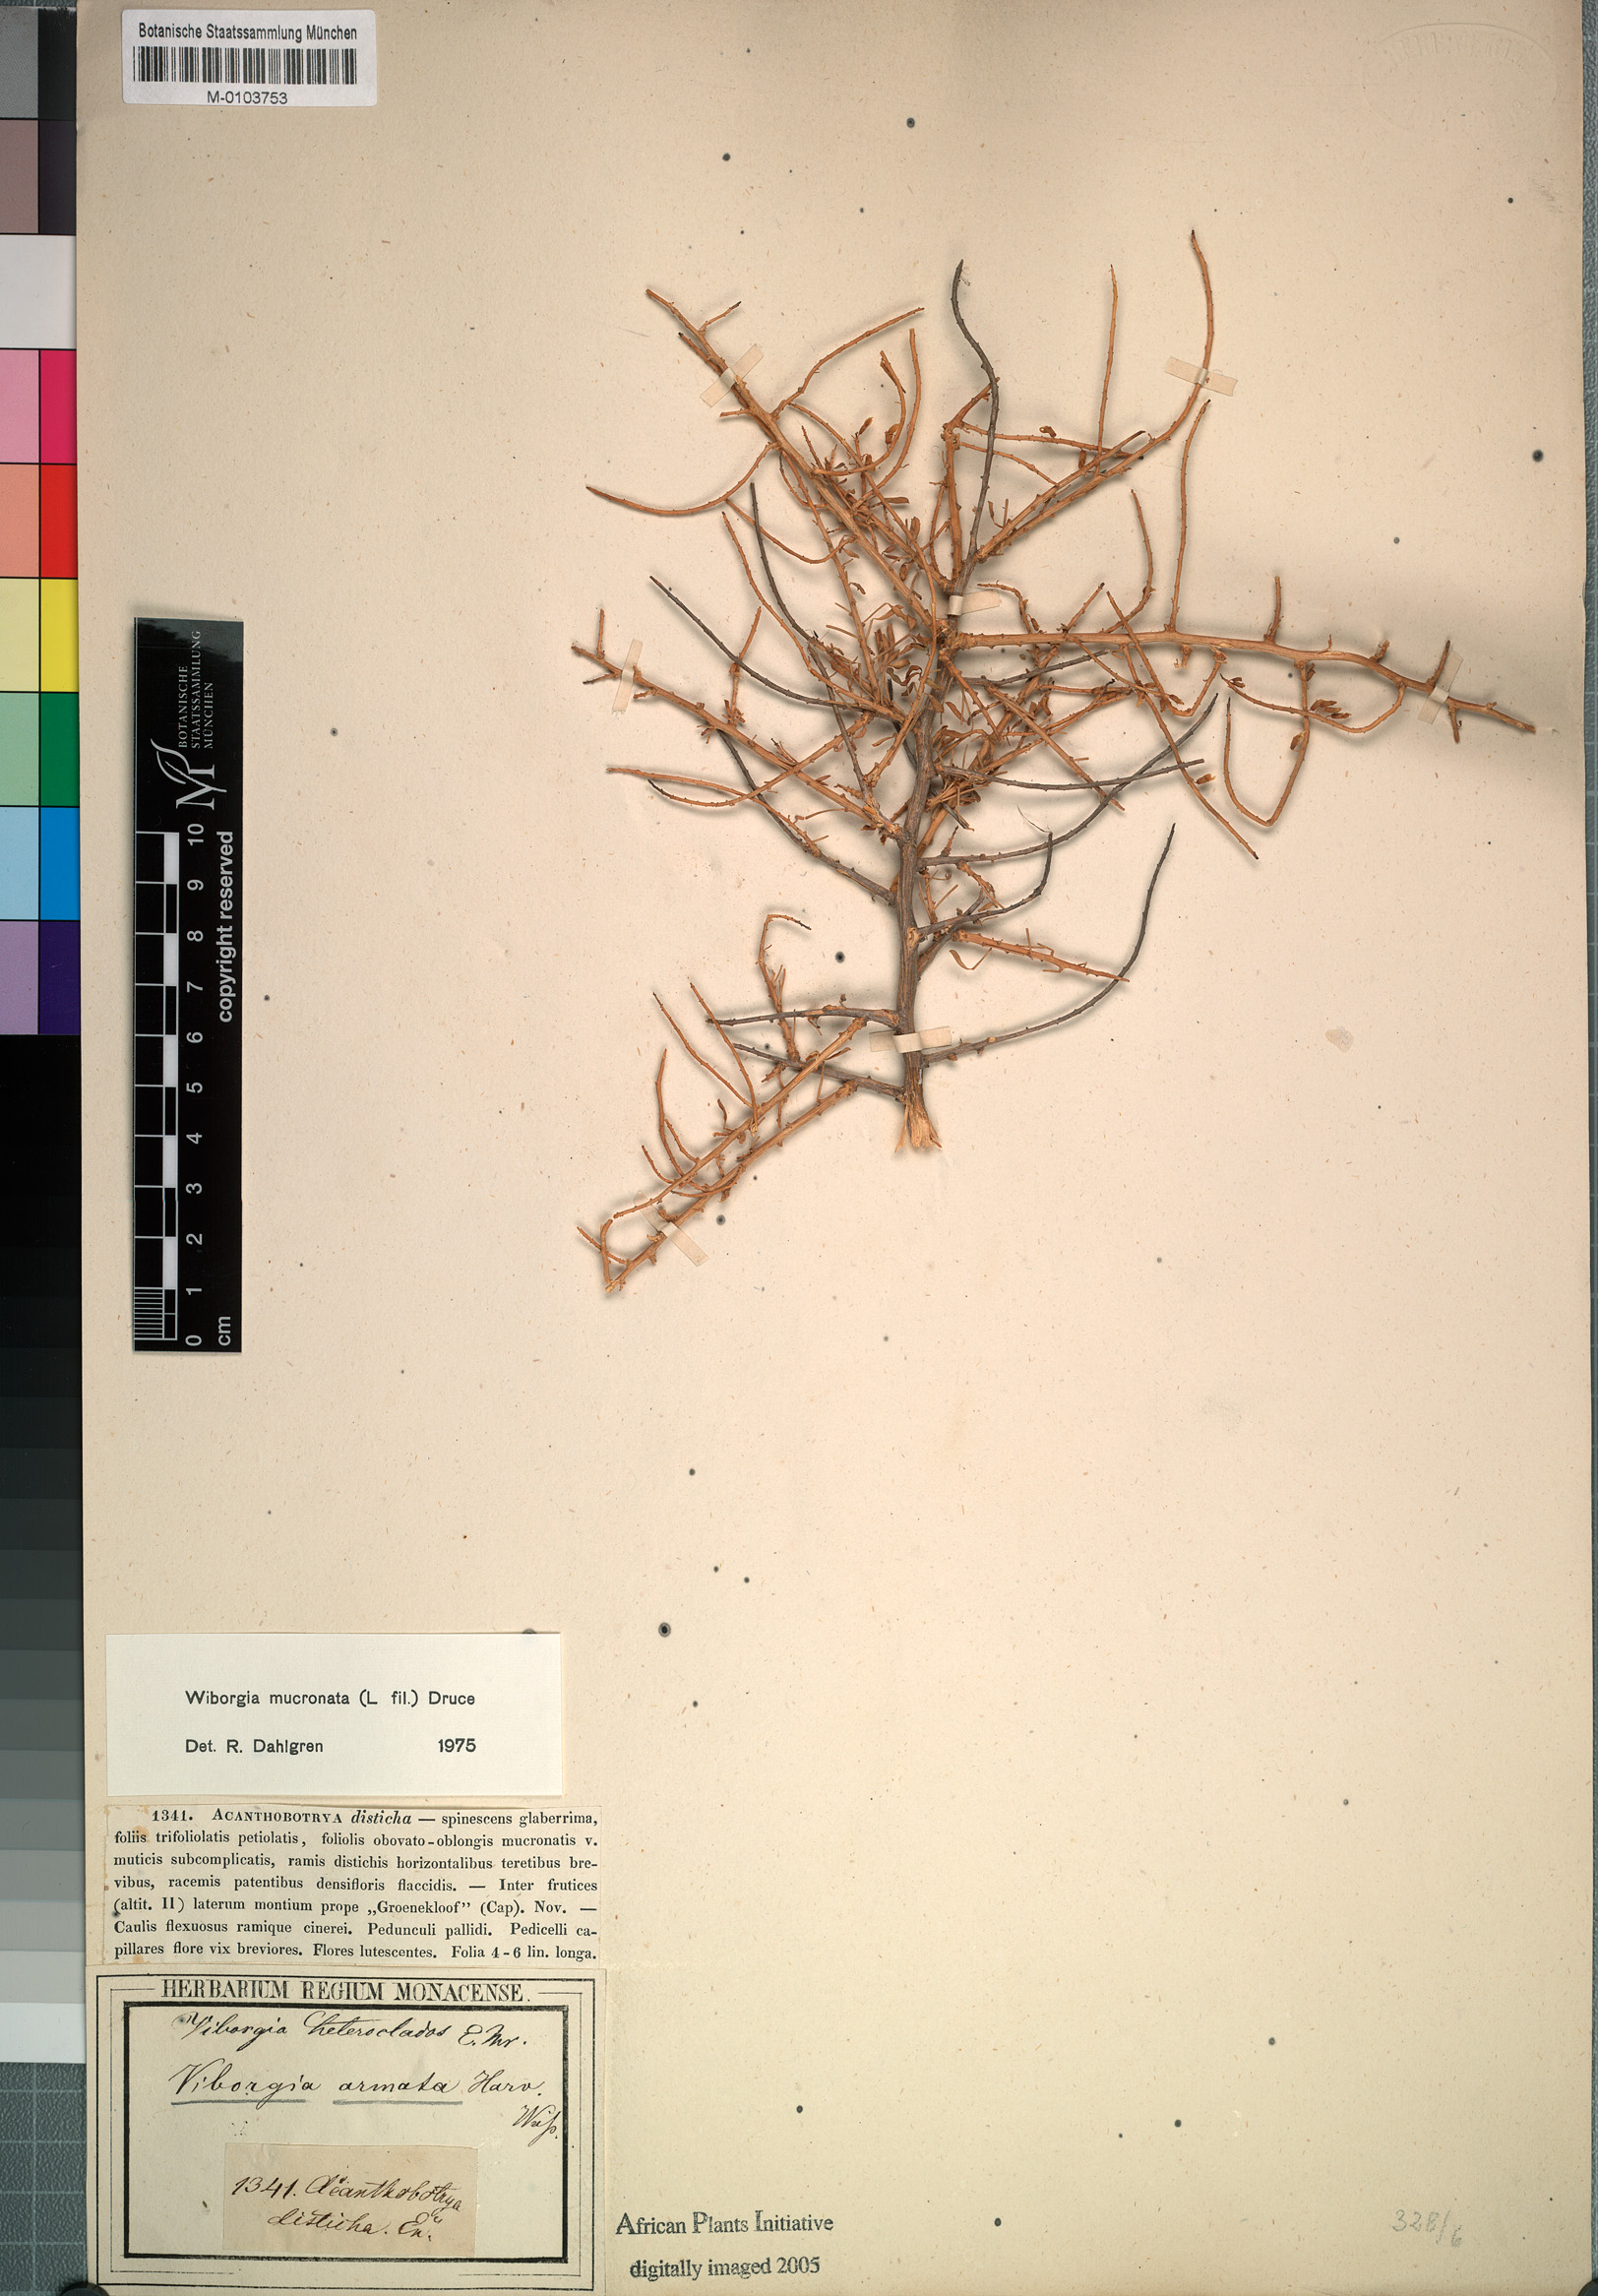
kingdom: Plantae
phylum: Tracheophyta
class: Magnoliopsida
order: Fabales
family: Fabaceae
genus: Wiborgia
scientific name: Wiborgia mucronata
